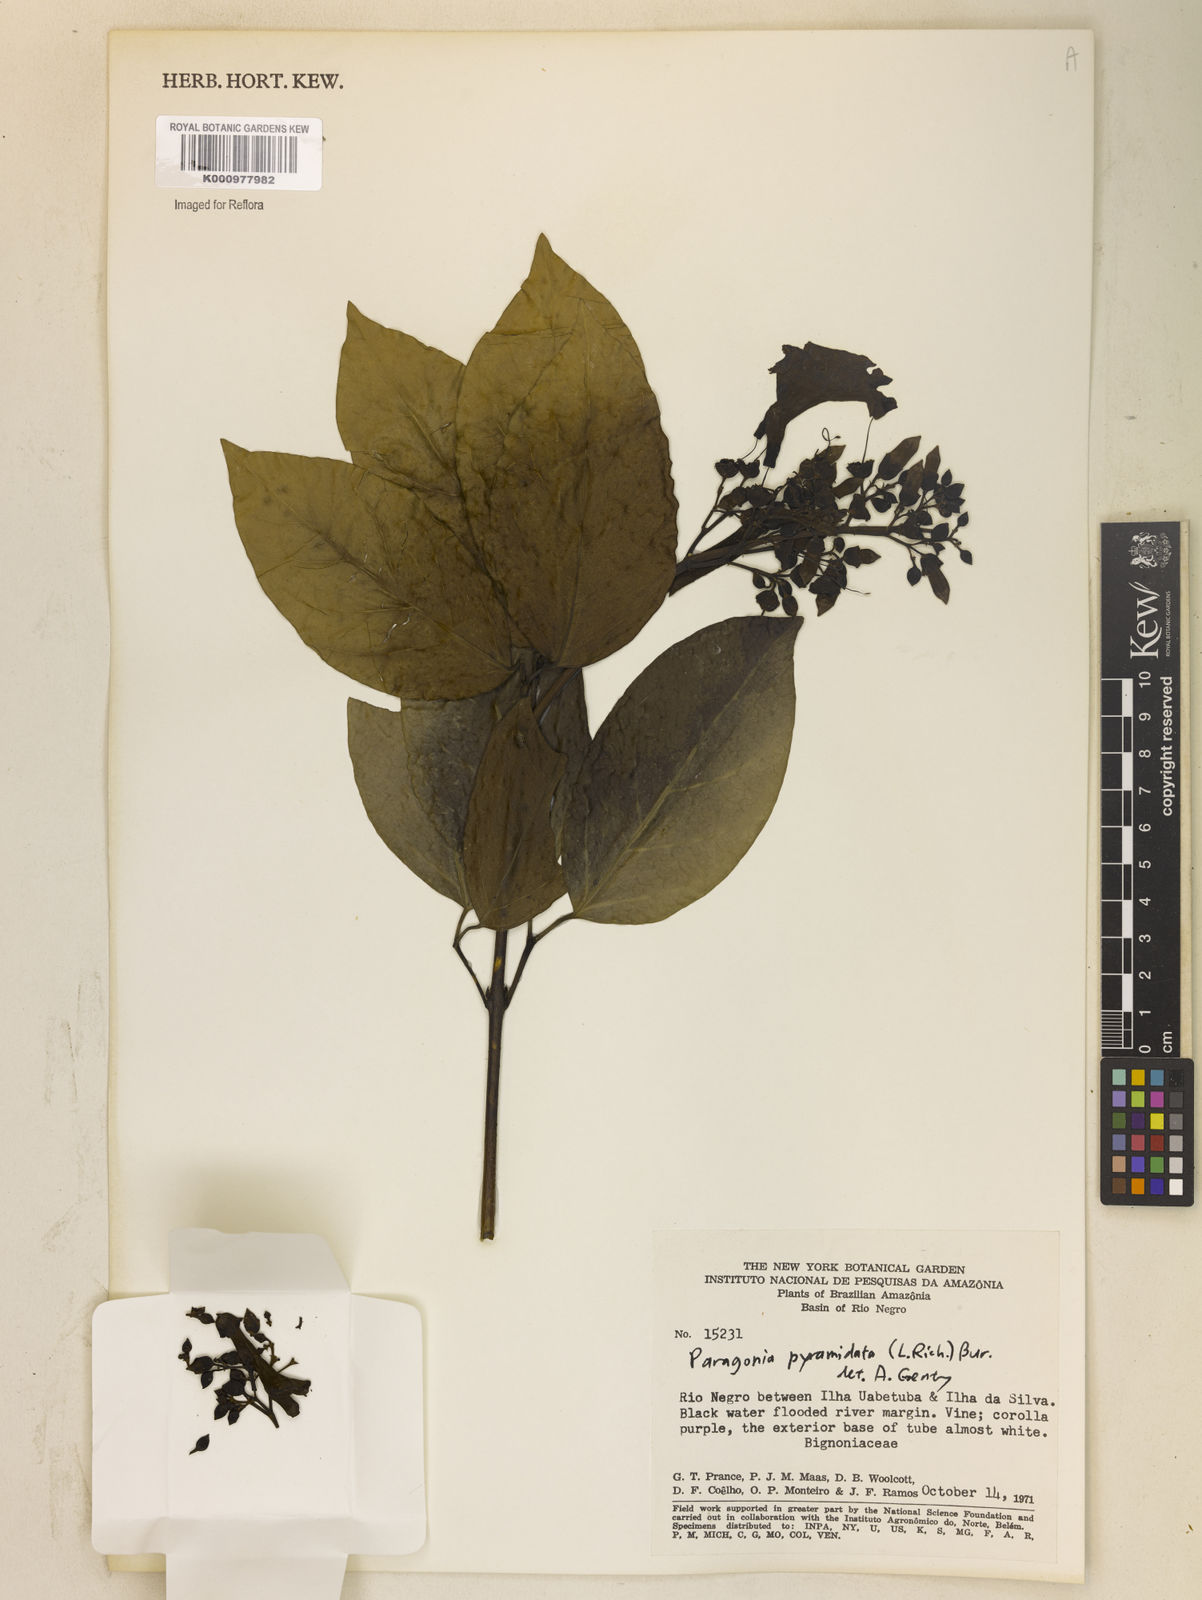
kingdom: Plantae
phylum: Tracheophyta
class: Magnoliopsida
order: Lamiales
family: Bignoniaceae
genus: Tanaecium
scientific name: Tanaecium pyramidatum
